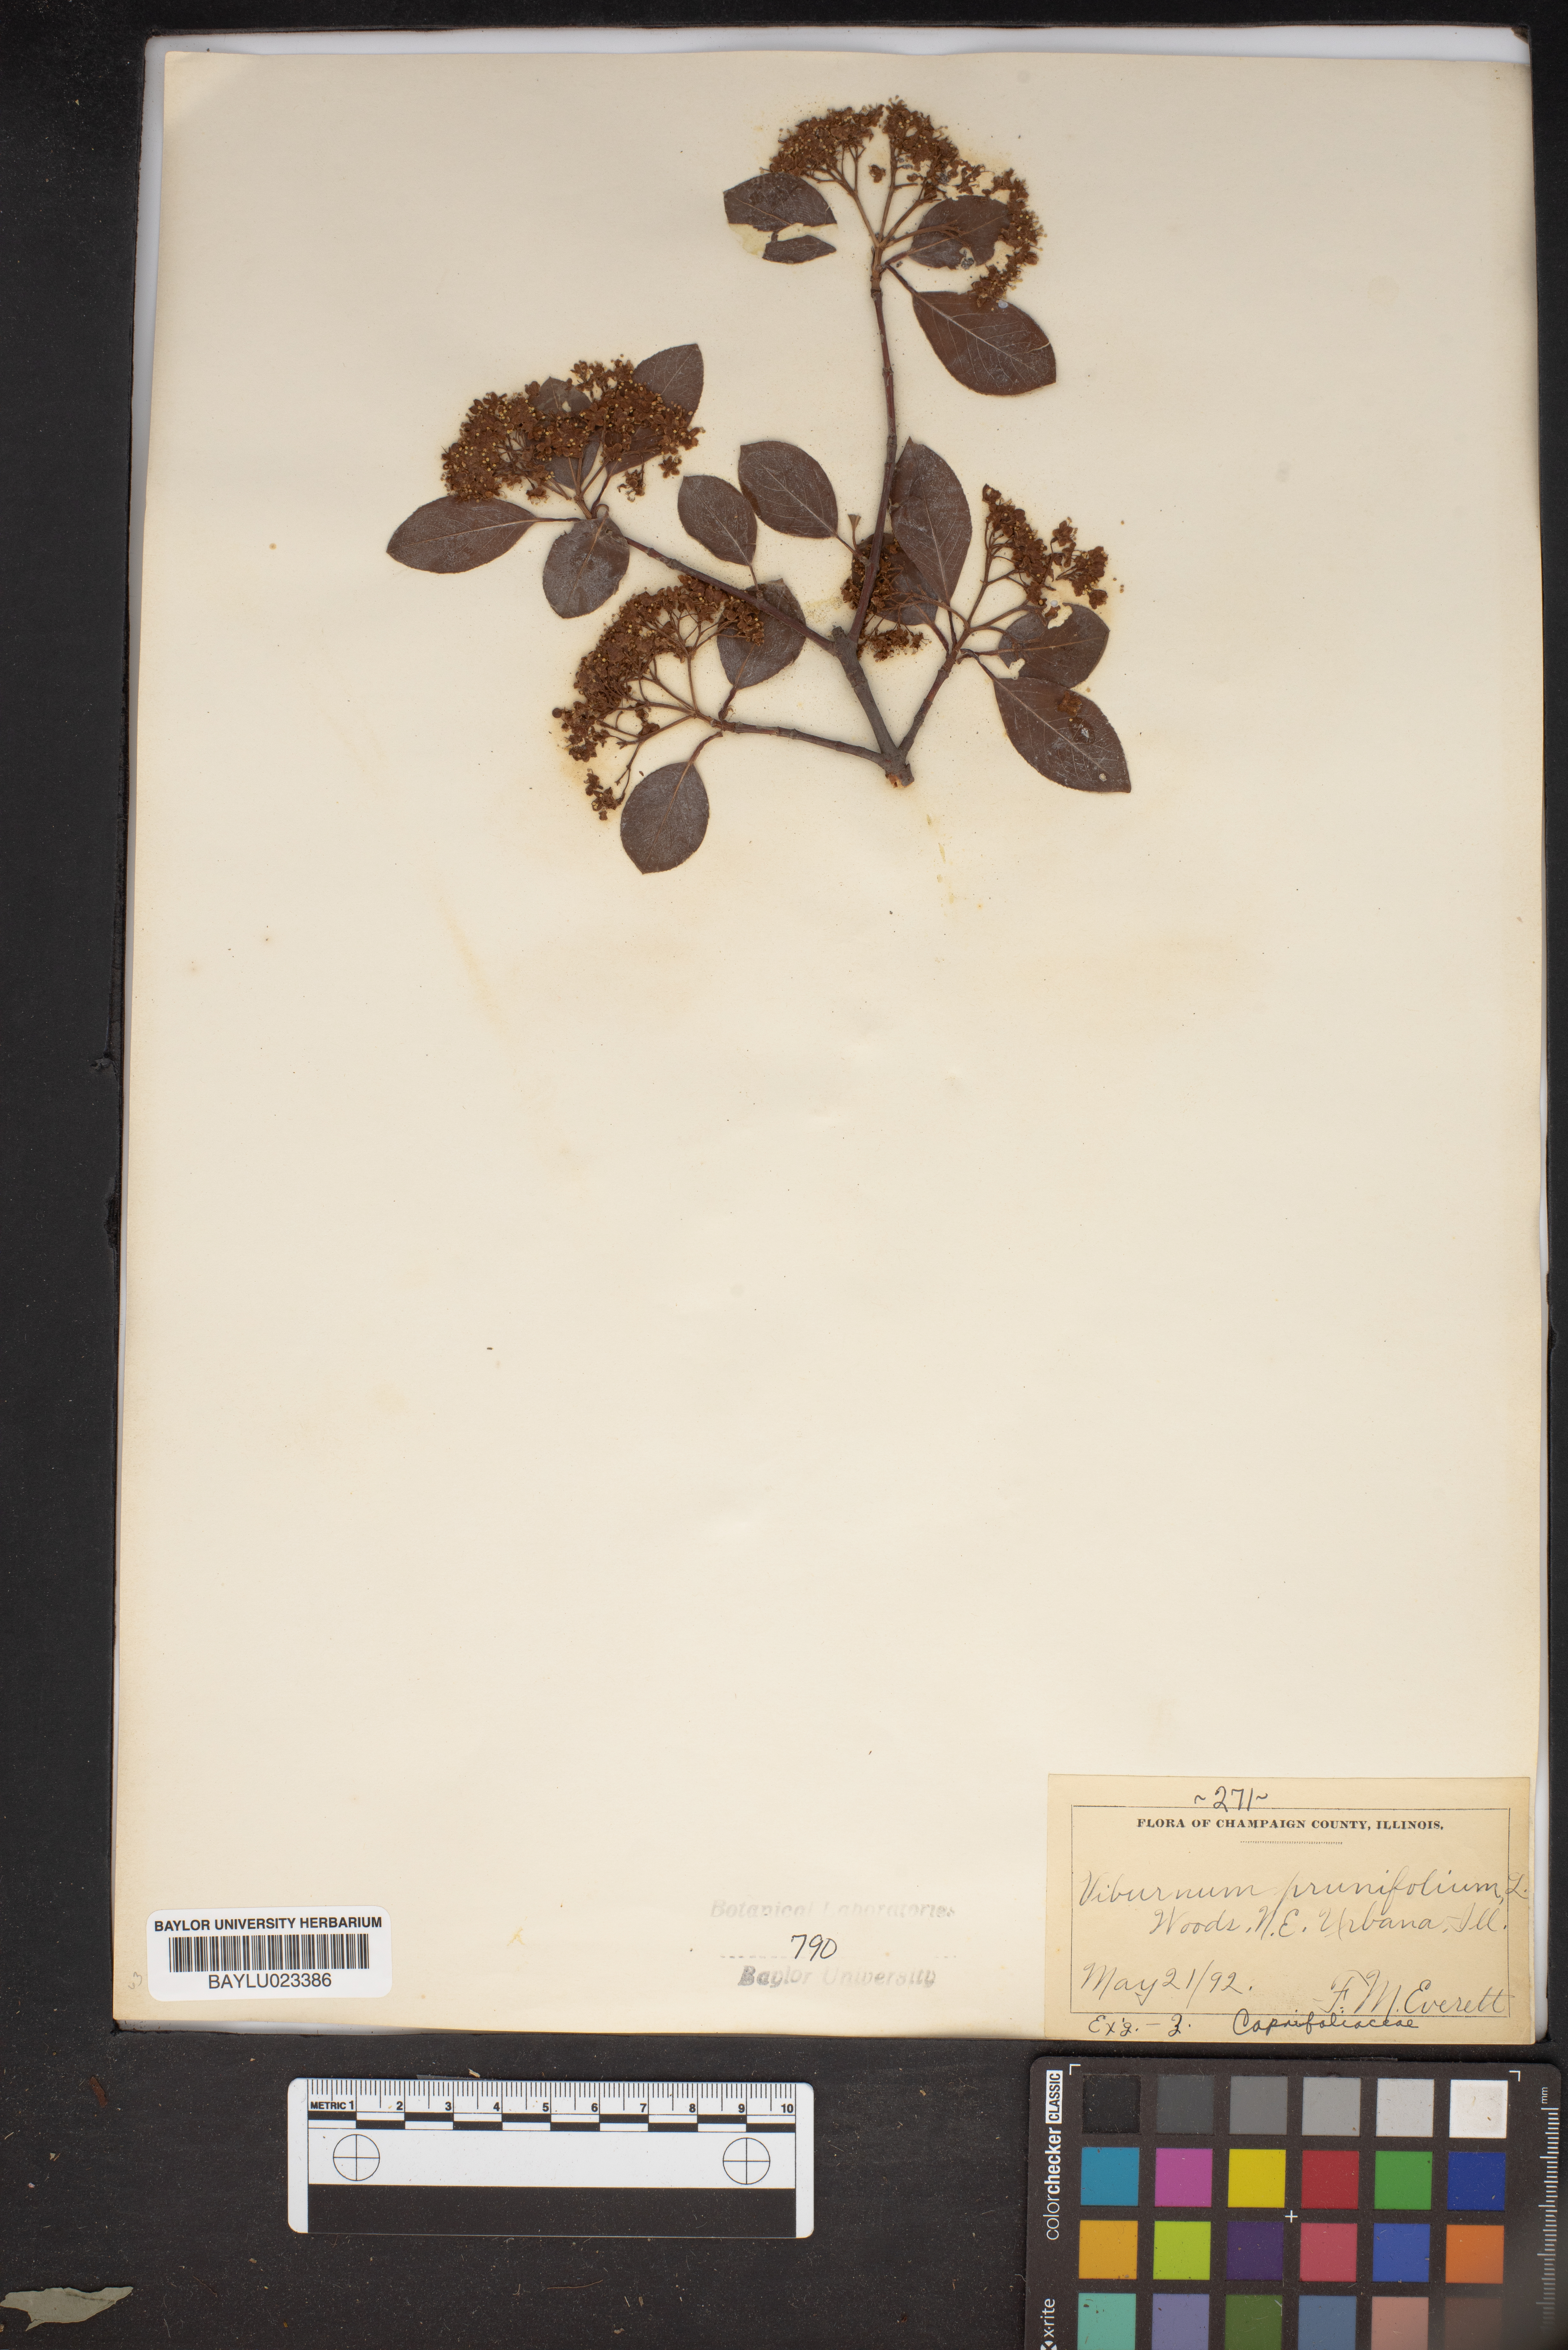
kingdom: Plantae
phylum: Tracheophyta
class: Magnoliopsida
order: Dipsacales
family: Viburnaceae
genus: Viburnum
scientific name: Viburnum prunifolium
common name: Black haw
